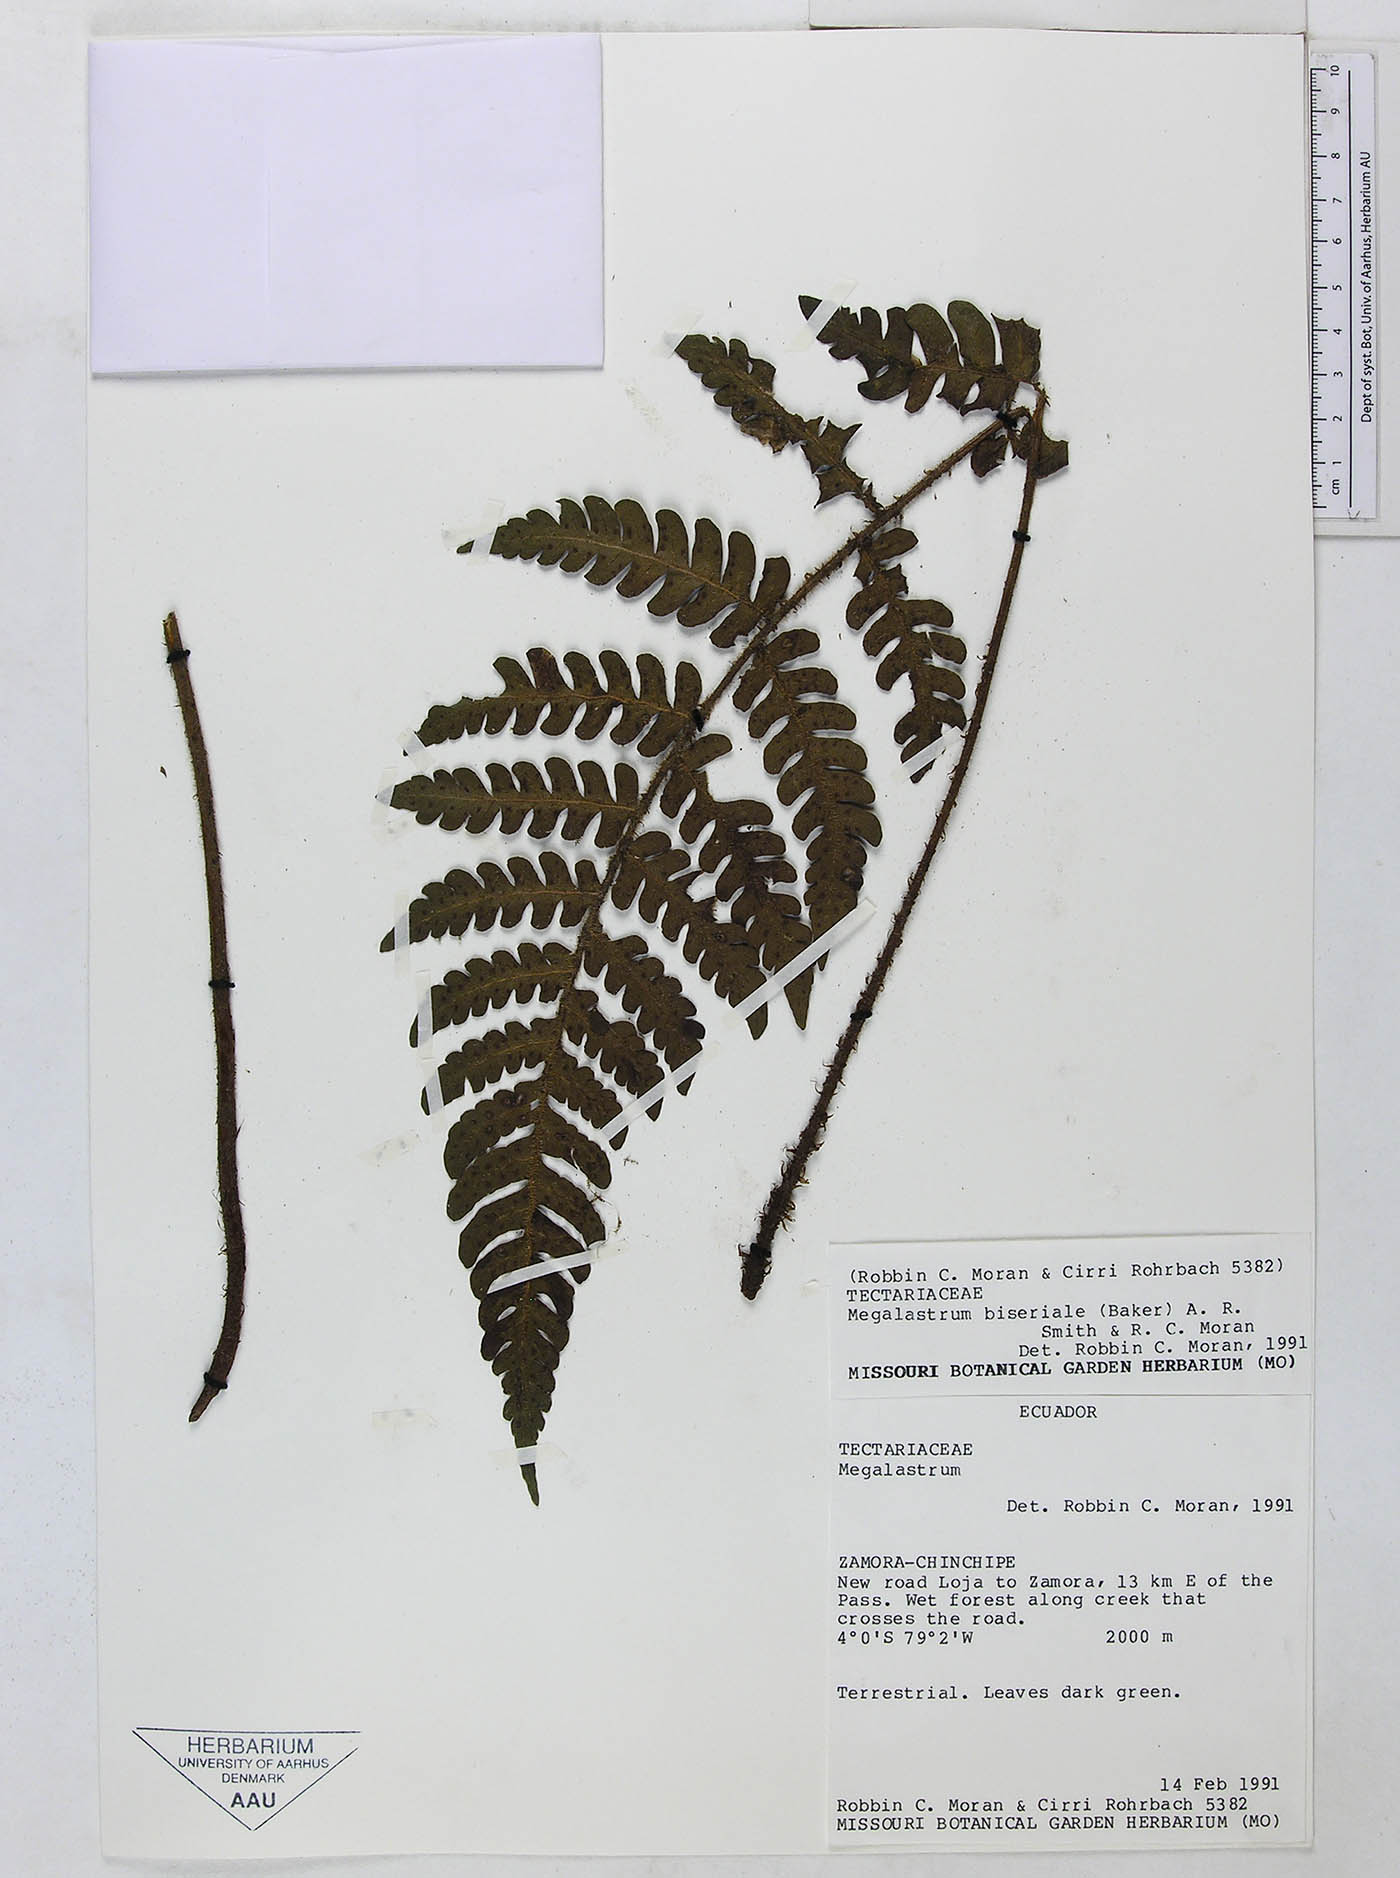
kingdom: Plantae
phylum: Tracheophyta
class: Polypodiopsida
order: Polypodiales
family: Dryopteridaceae
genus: Megalastrum
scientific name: Megalastrum bolivianum
